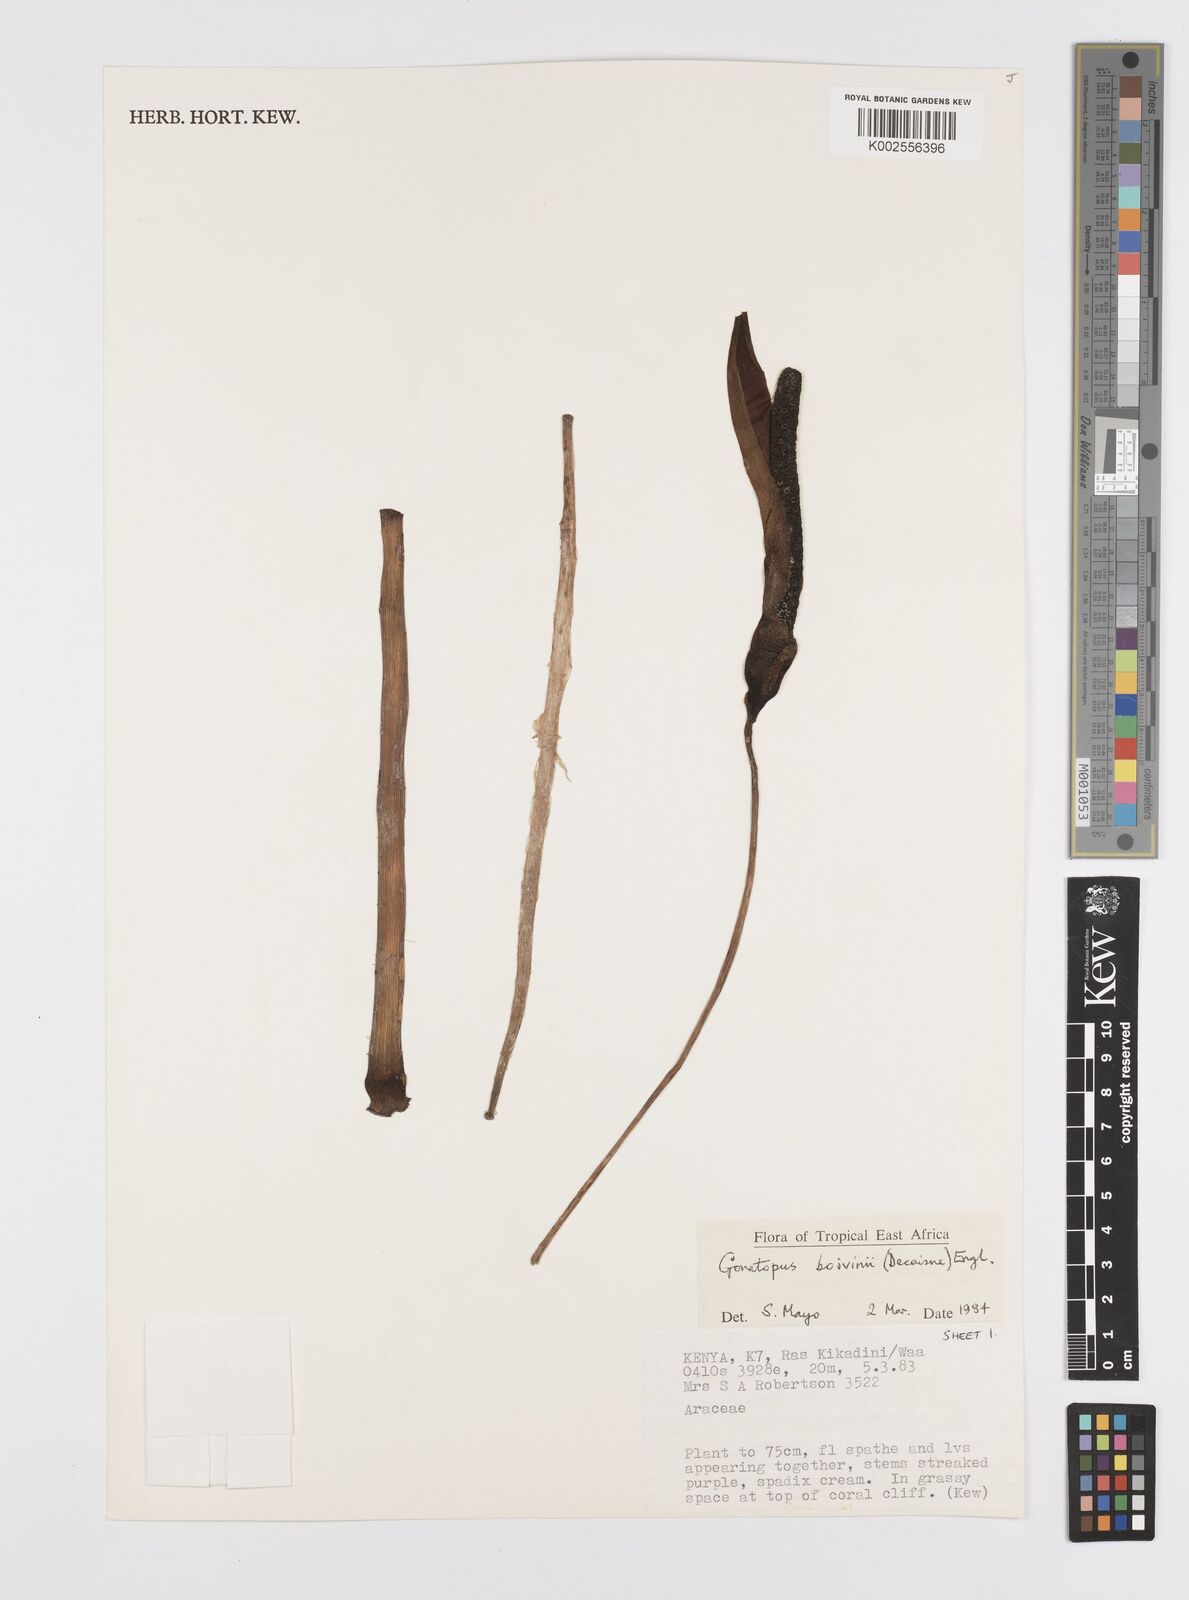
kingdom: Plantae
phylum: Tracheophyta
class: Liliopsida
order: Alismatales
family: Araceae
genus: Gonatopus
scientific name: Gonatopus boivinii
